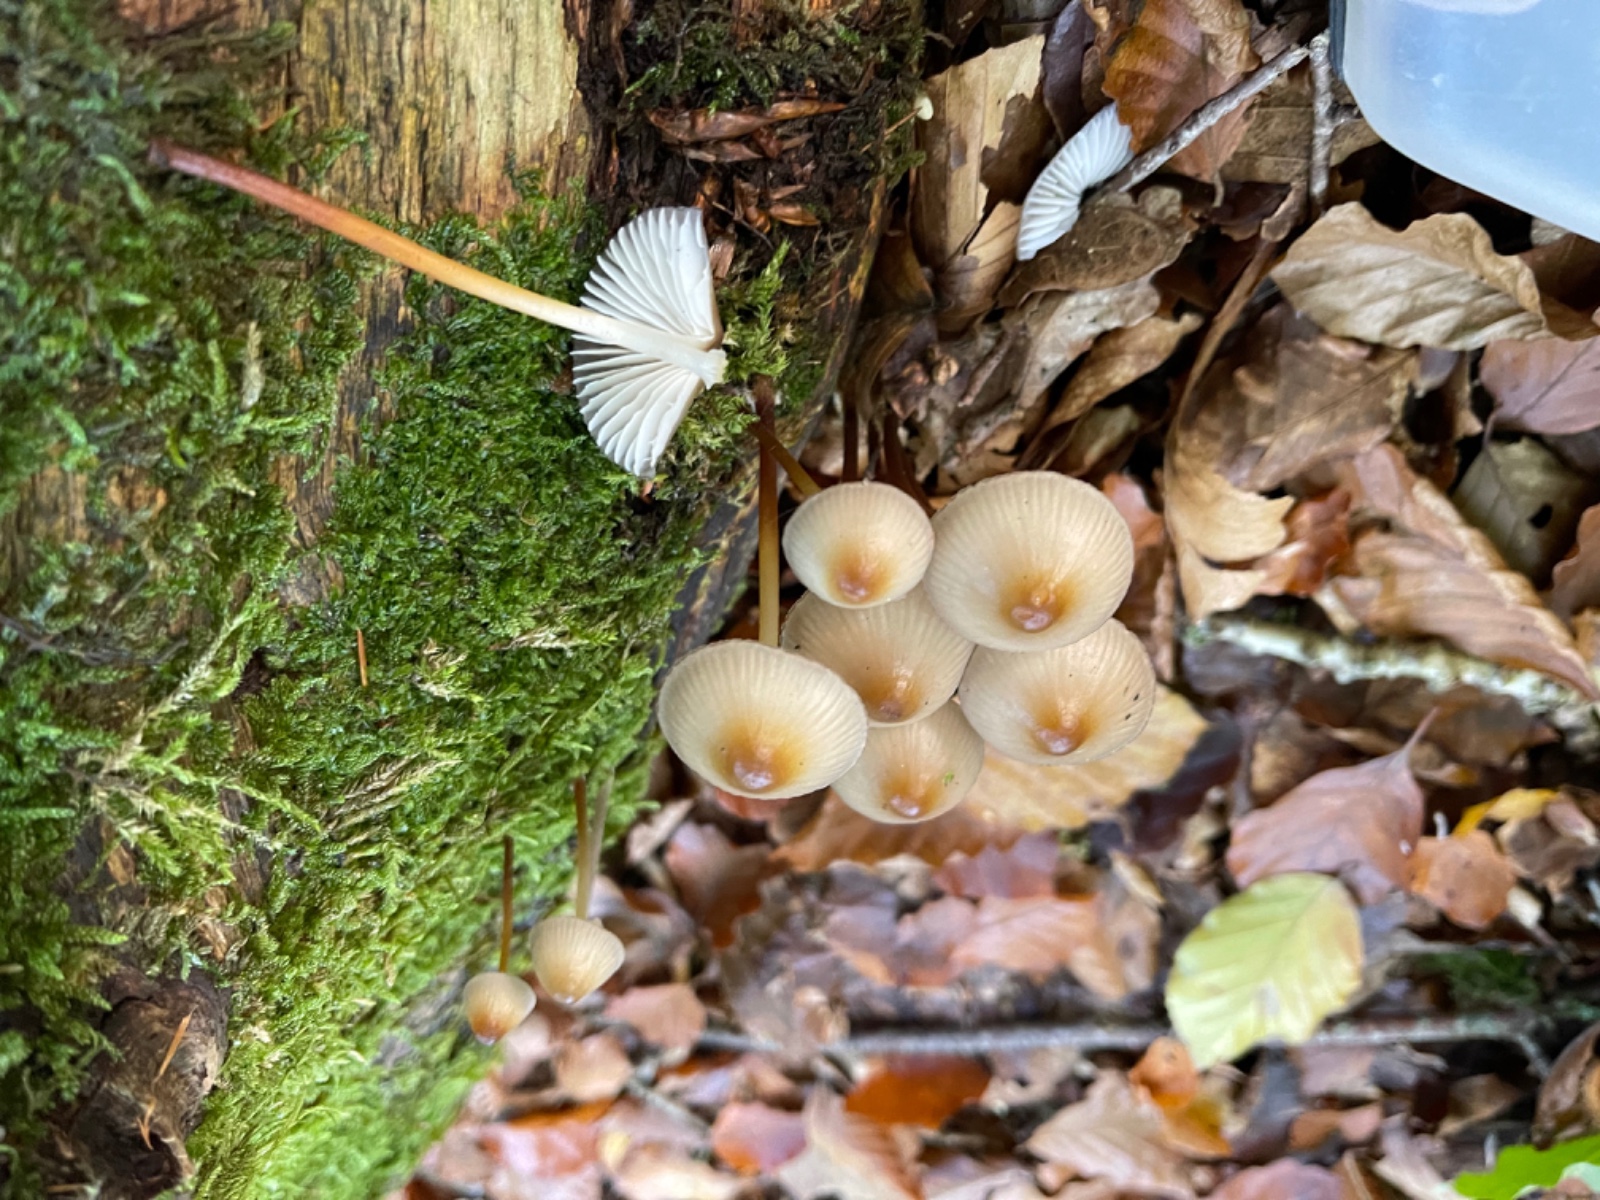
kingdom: Fungi
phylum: Basidiomycota
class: Agaricomycetes
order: Agaricales
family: Marasmiaceae
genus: Marasmius
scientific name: Marasmius torquescens
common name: filtfodet bruskhat
